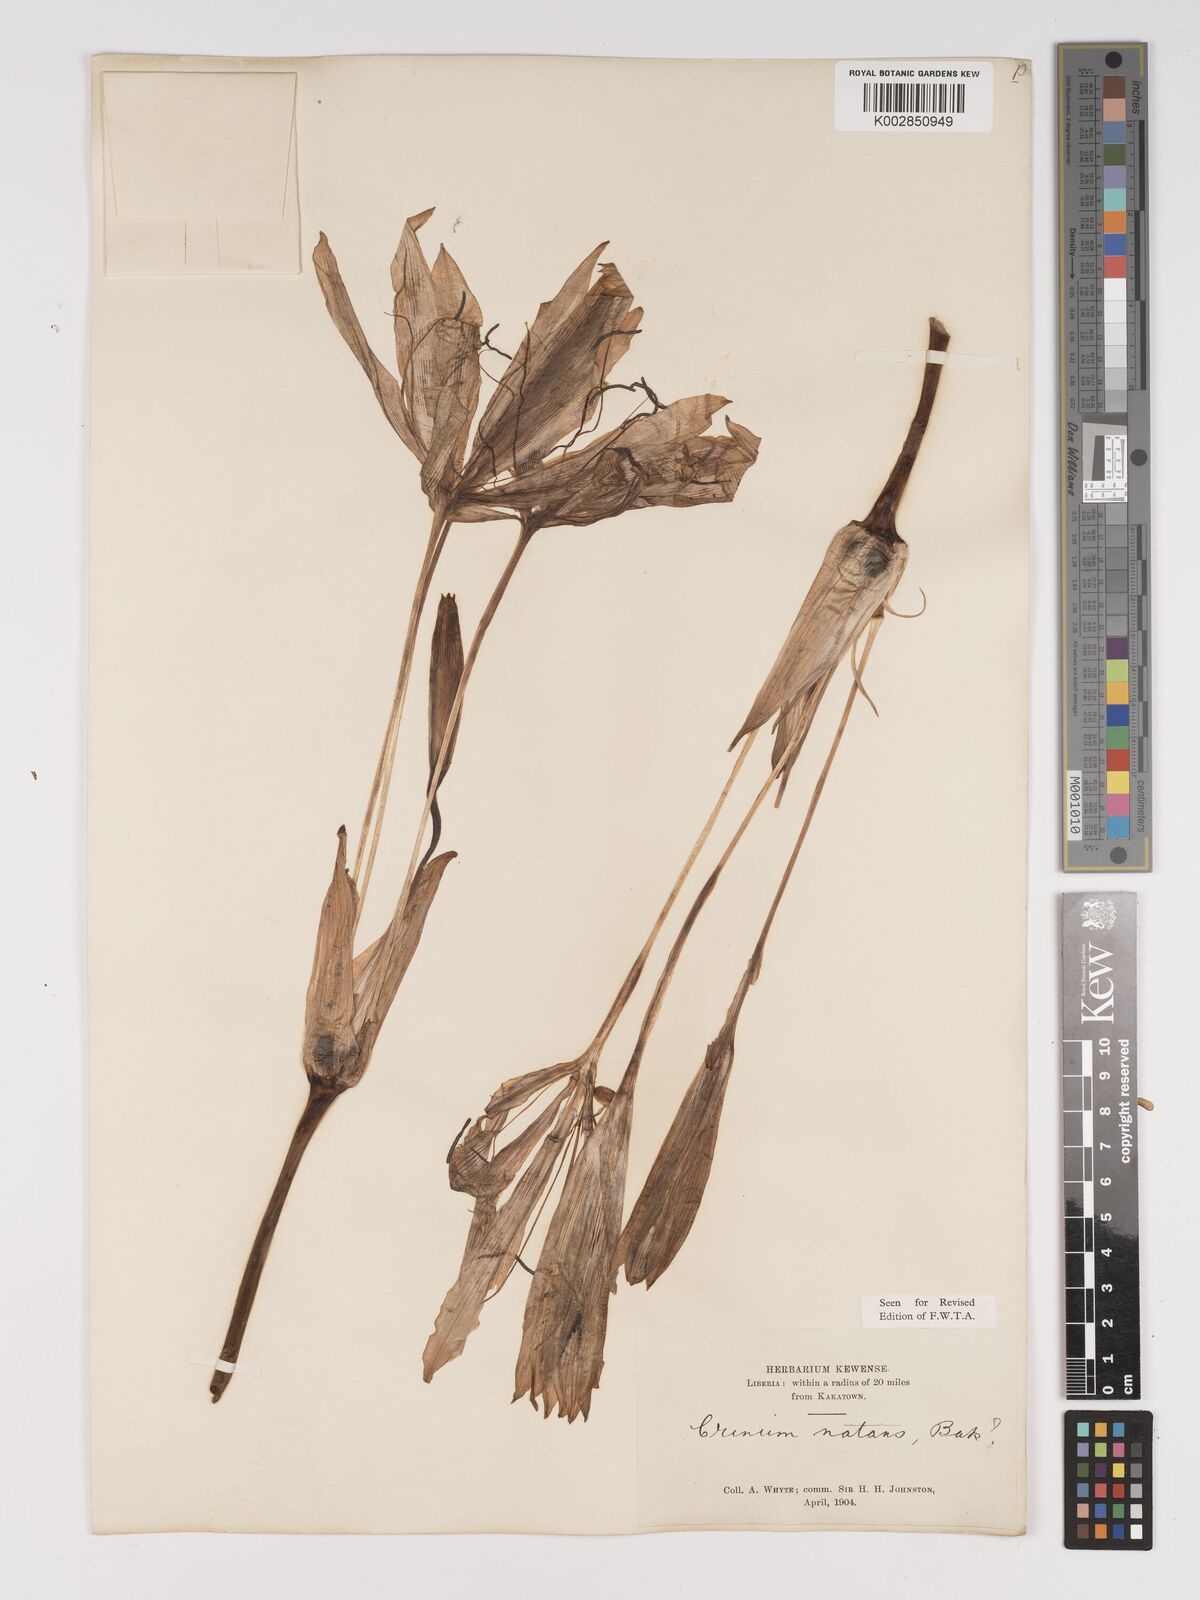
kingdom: Plantae
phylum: Tracheophyta
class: Liliopsida
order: Asparagales
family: Amaryllidaceae
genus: Crinum
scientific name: Crinum natans
